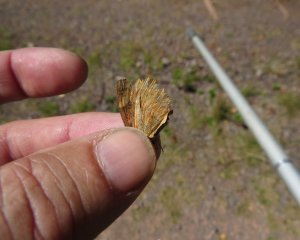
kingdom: Animalia
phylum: Arthropoda
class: Insecta
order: Lepidoptera
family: Nymphalidae
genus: Phyciodes
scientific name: Phyciodes tharos
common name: Northern Crescent
